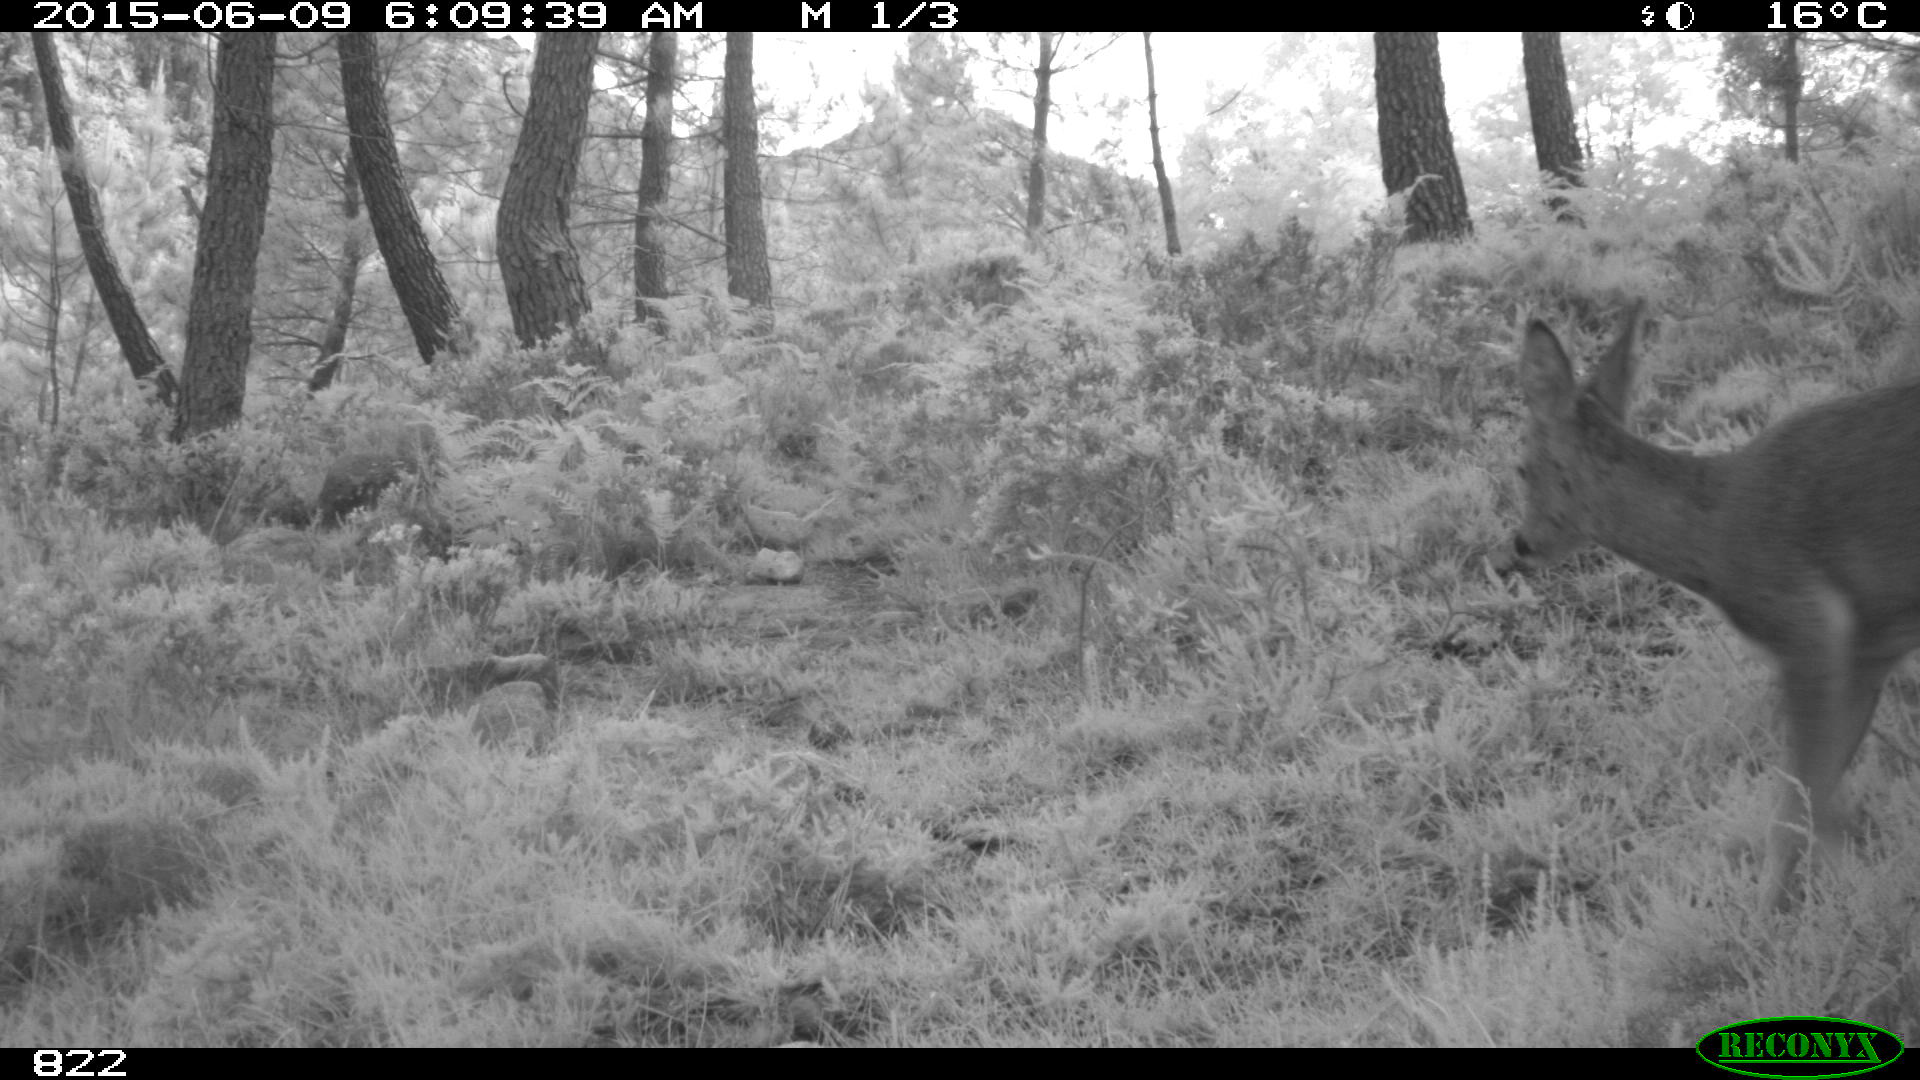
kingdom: Animalia
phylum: Chordata
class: Mammalia
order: Artiodactyla
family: Cervidae
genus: Capreolus
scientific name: Capreolus capreolus
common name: Western roe deer
